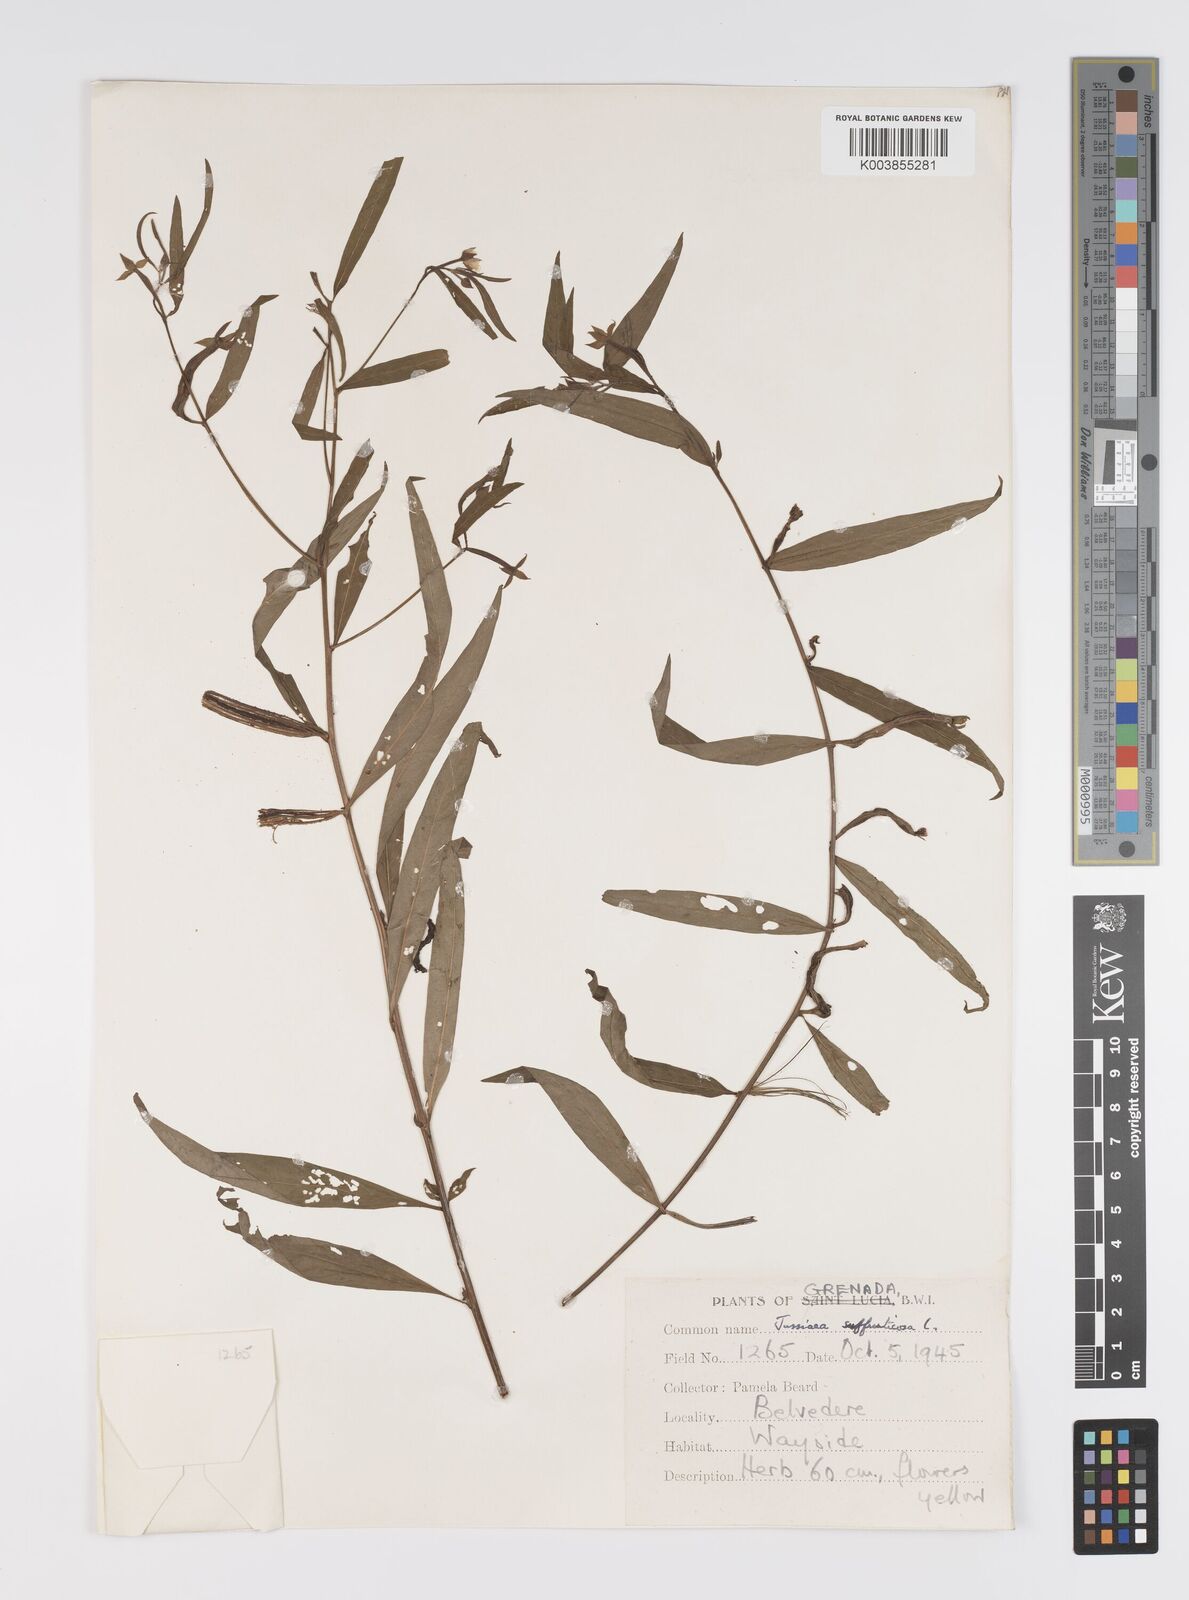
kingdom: Plantae
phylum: Tracheophyta
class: Magnoliopsida
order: Myrtales
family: Onagraceae
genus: Ludwigia
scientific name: Ludwigia
